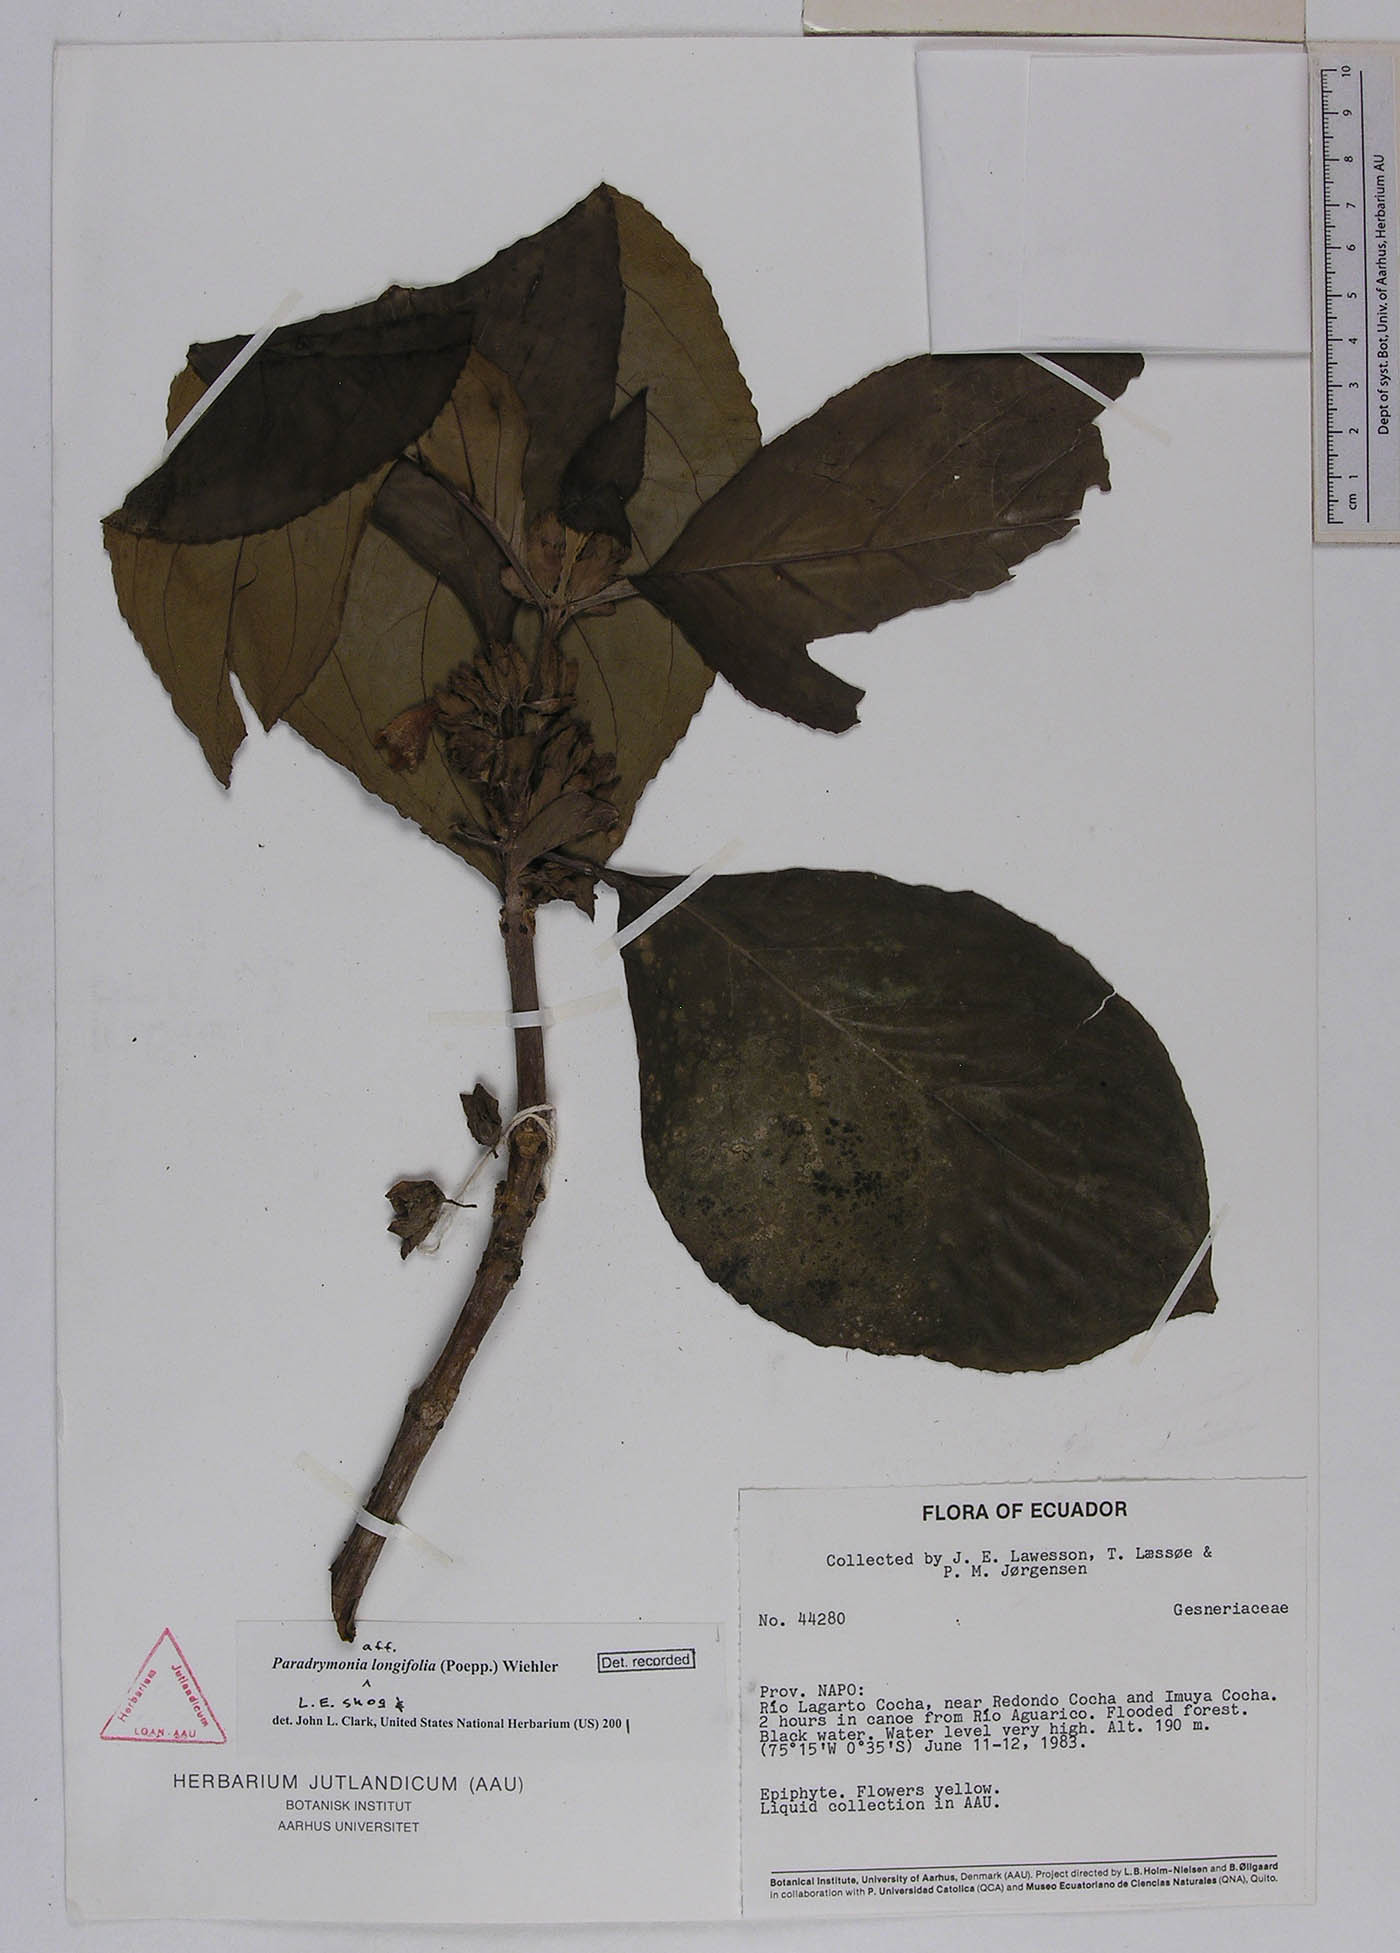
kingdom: Plantae
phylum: Tracheophyta
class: Magnoliopsida
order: Lamiales
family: Gesneriaceae
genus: Paradrymonia
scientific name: Paradrymonia longifolia
